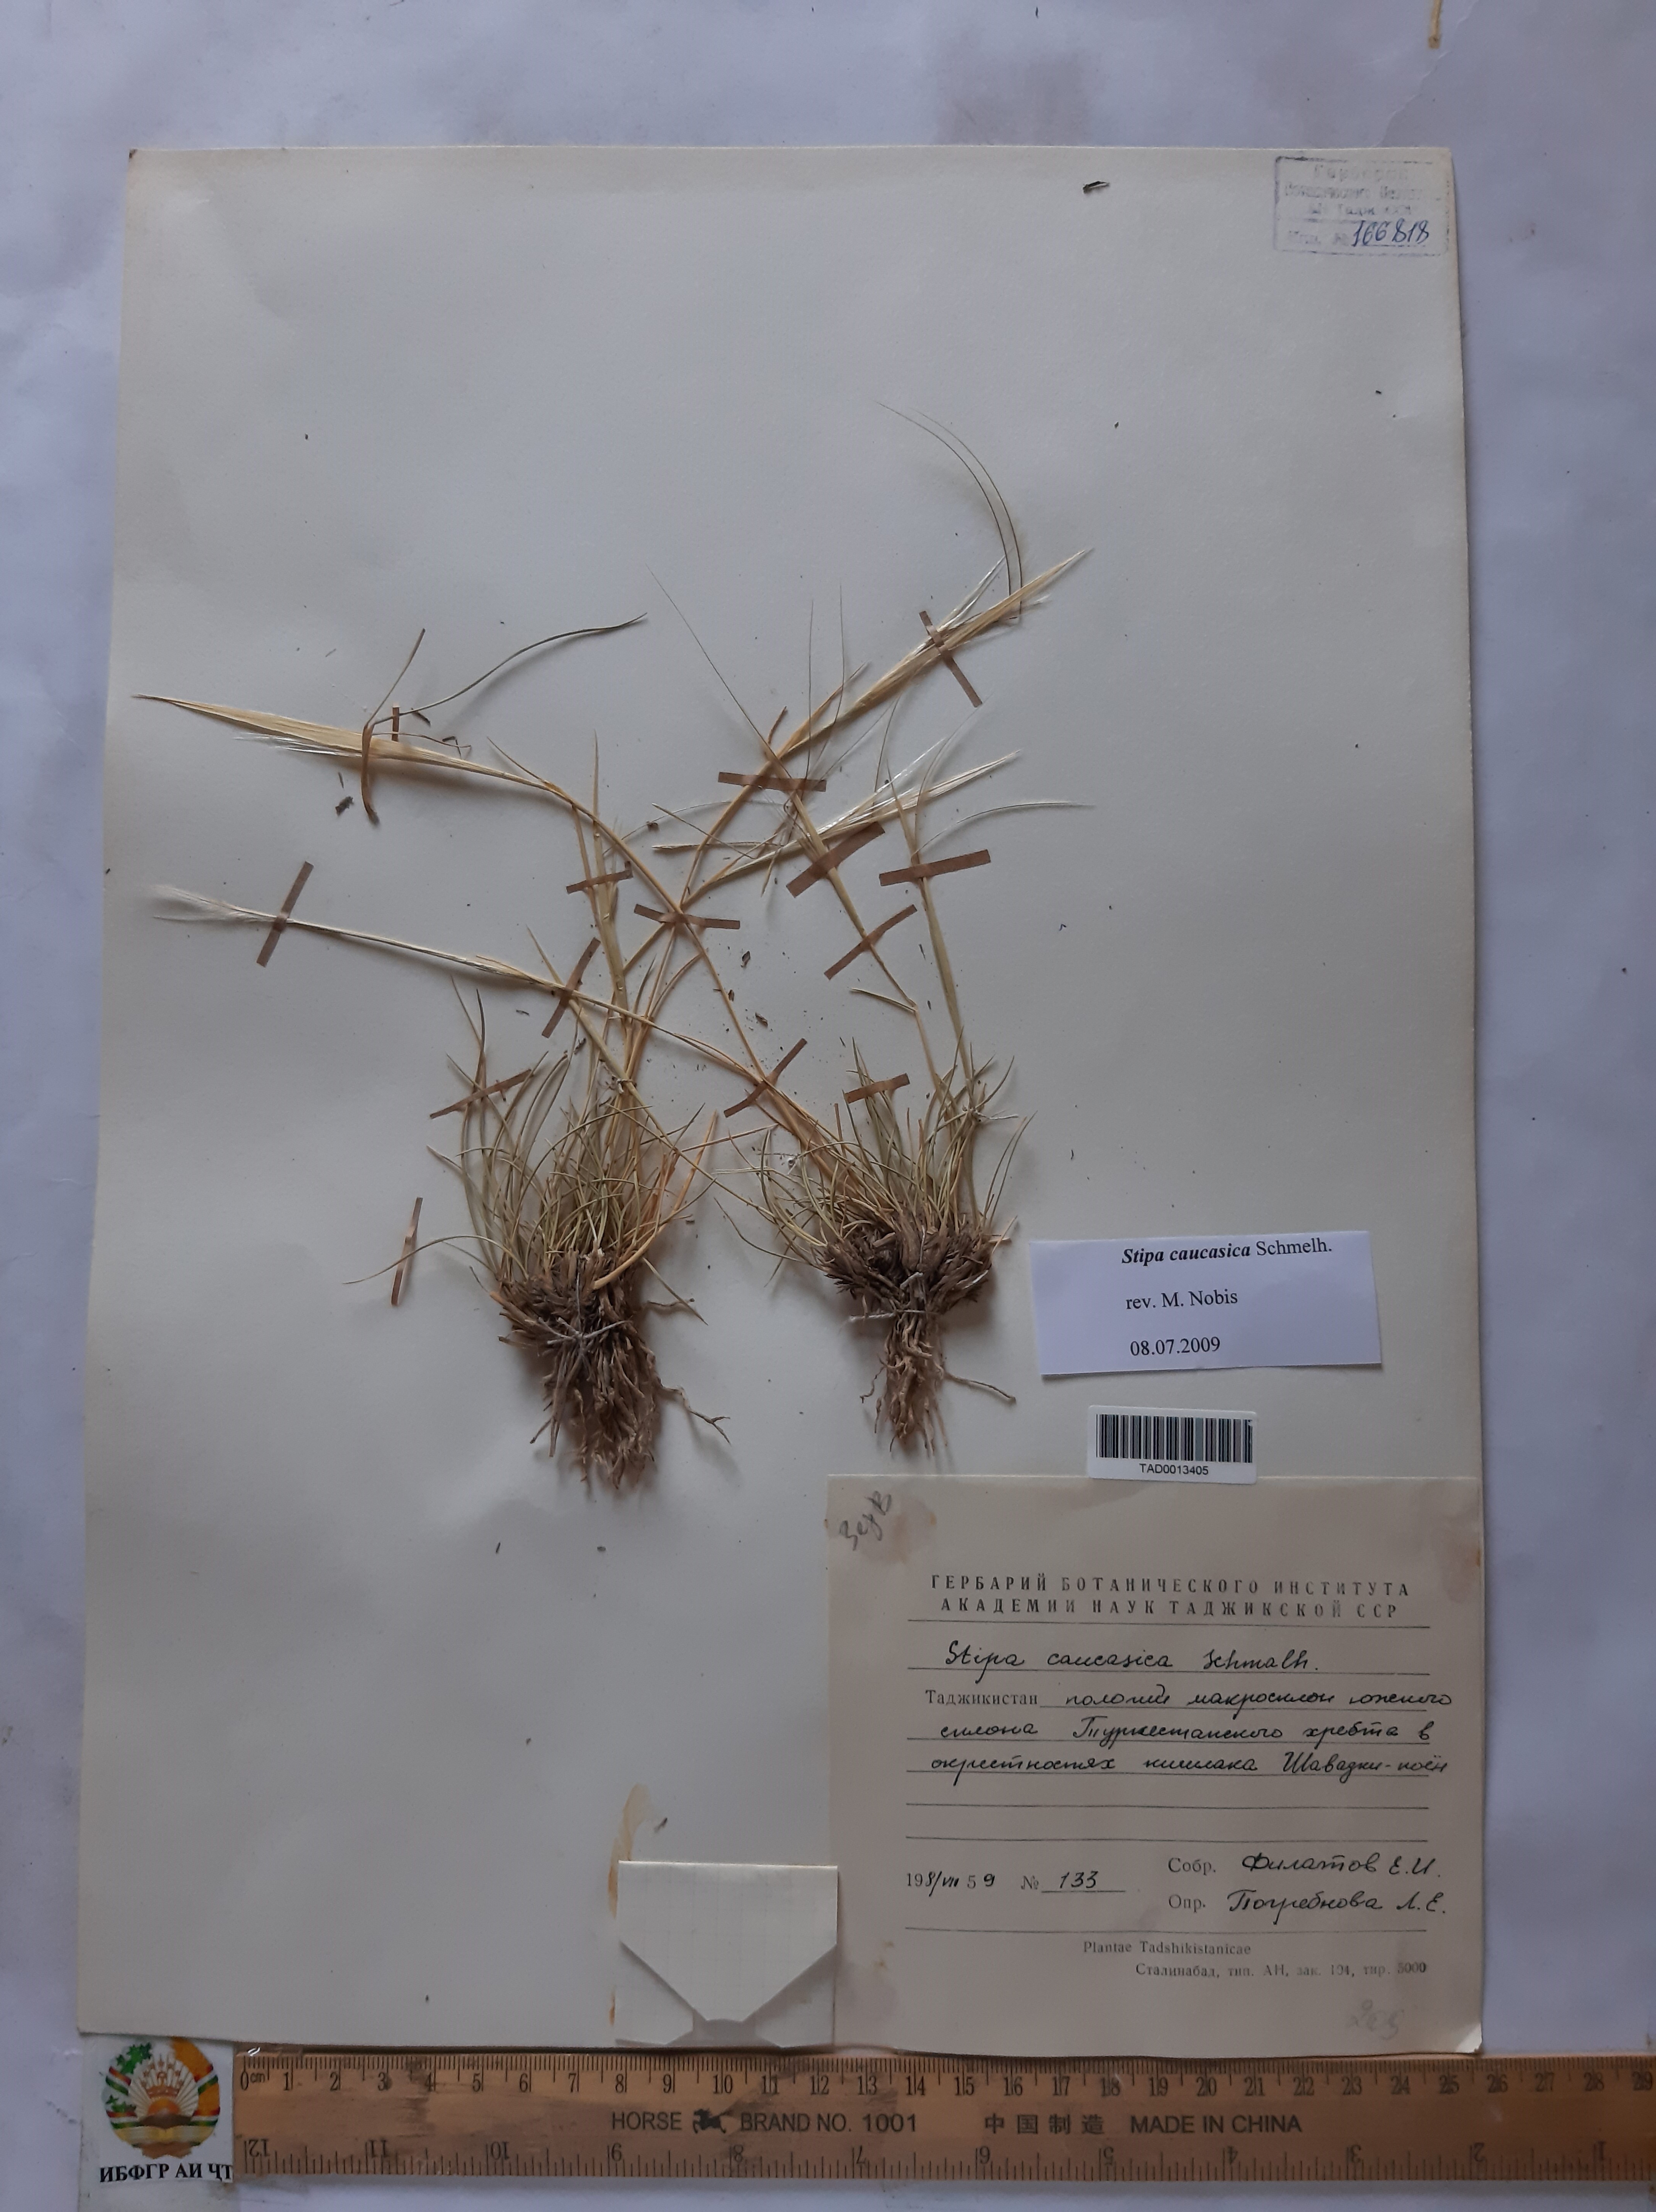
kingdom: Plantae
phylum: Tracheophyta
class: Liliopsida
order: Poales
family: Poaceae
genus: Stipa
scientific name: Stipa caucasica
